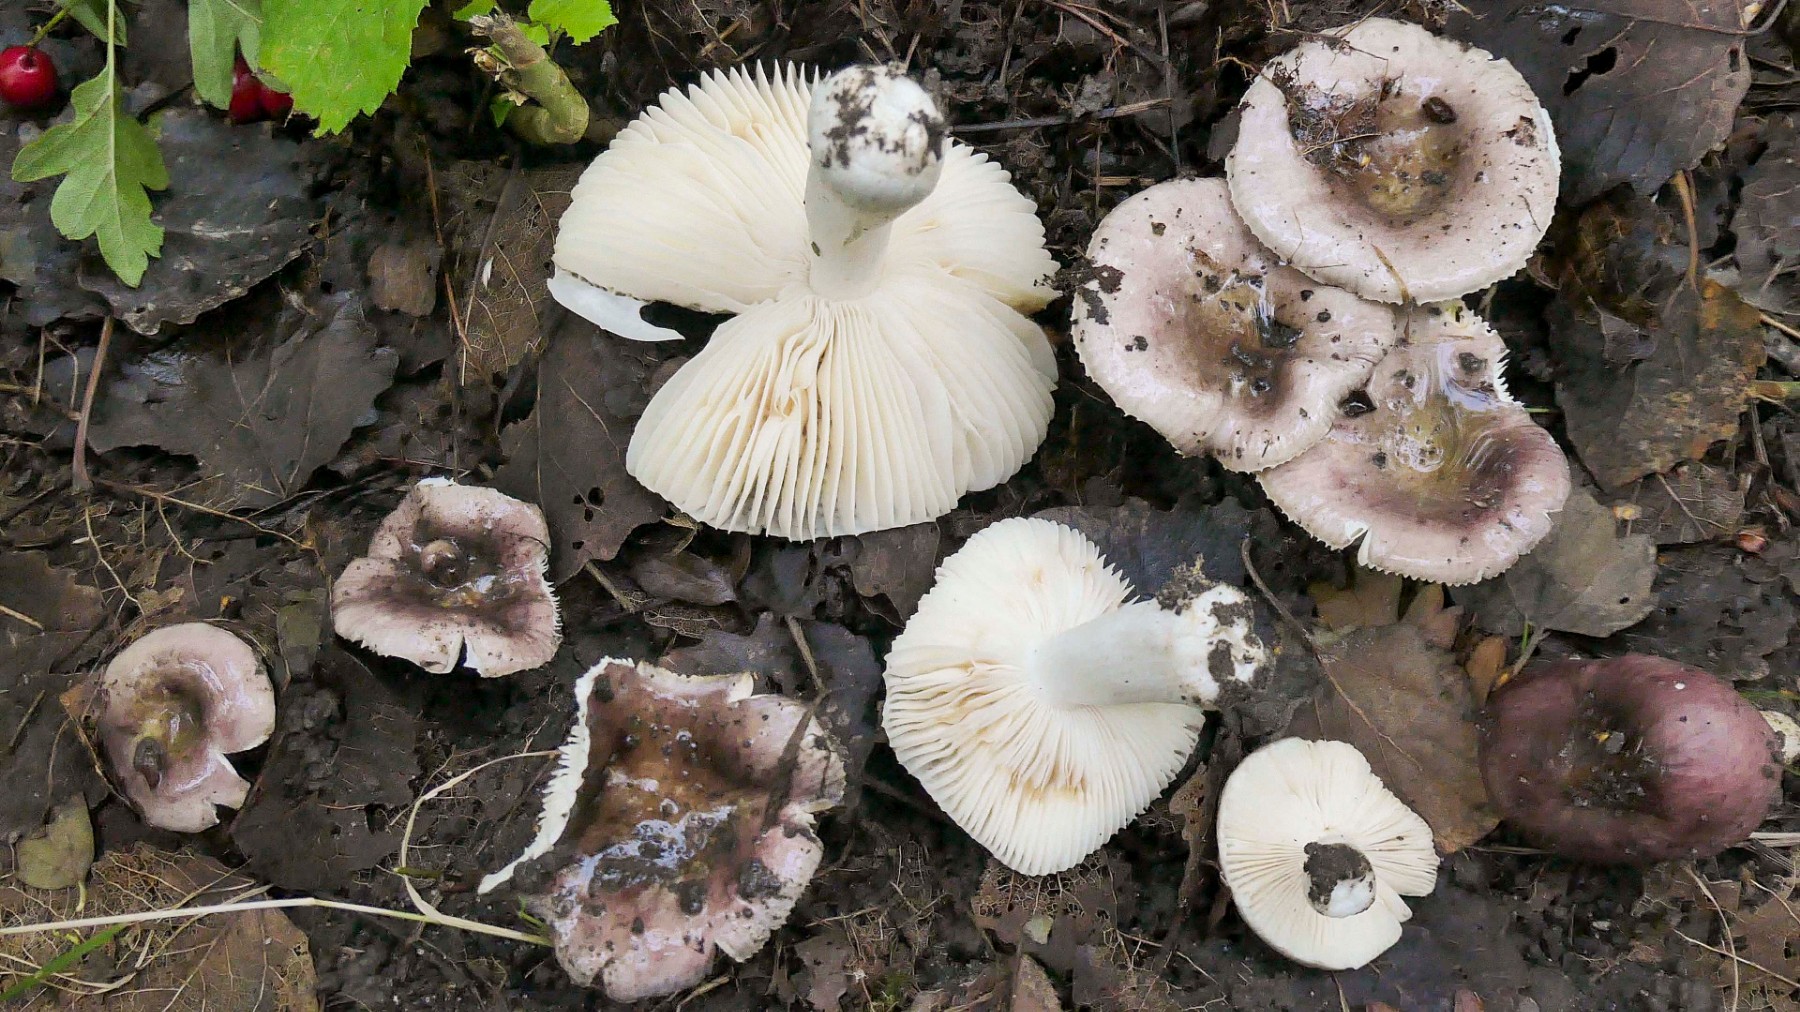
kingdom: Fungi
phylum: Basidiomycota
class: Agaricomycetes
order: Russulales
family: Russulaceae
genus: Russula
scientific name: Russula pelargonia
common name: pelargonie-skørhat
